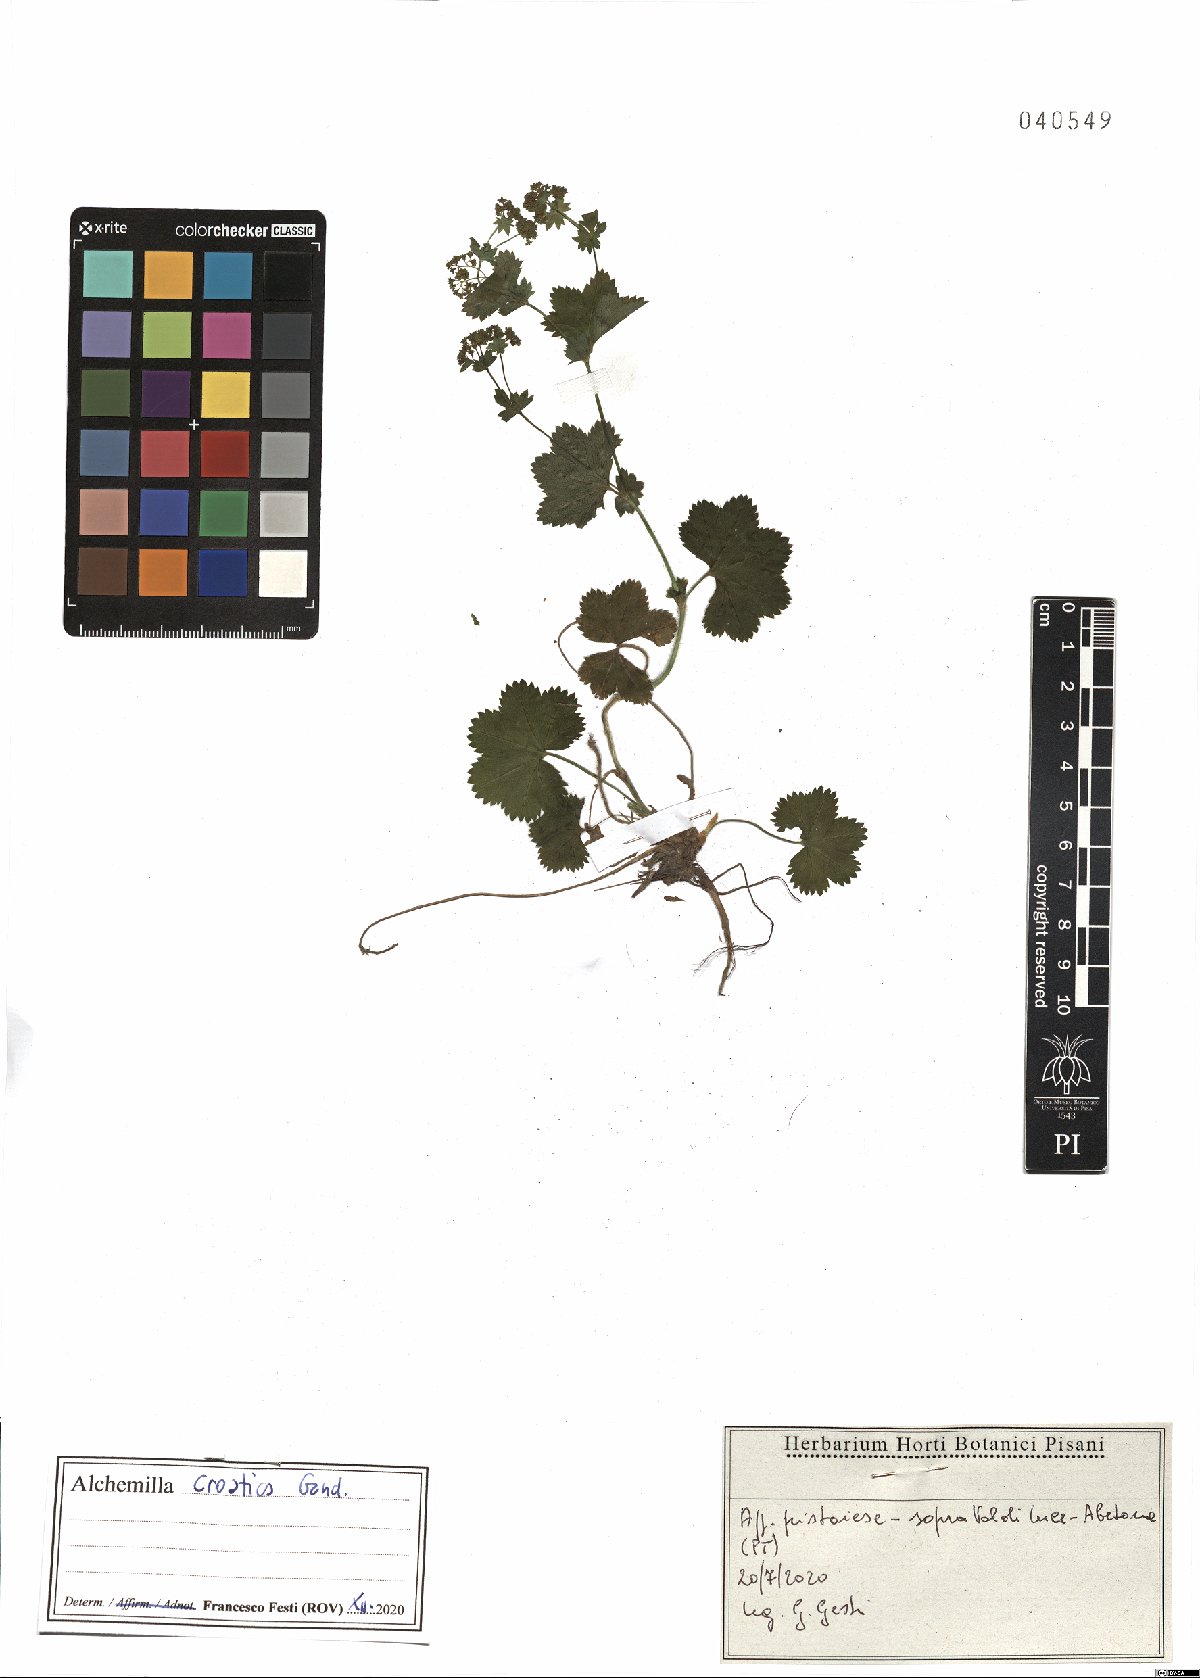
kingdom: Plantae
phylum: Tracheophyta
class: Magnoliopsida
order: Rosales
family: Rosaceae
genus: Alchemilla
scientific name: Alchemilla croatica
